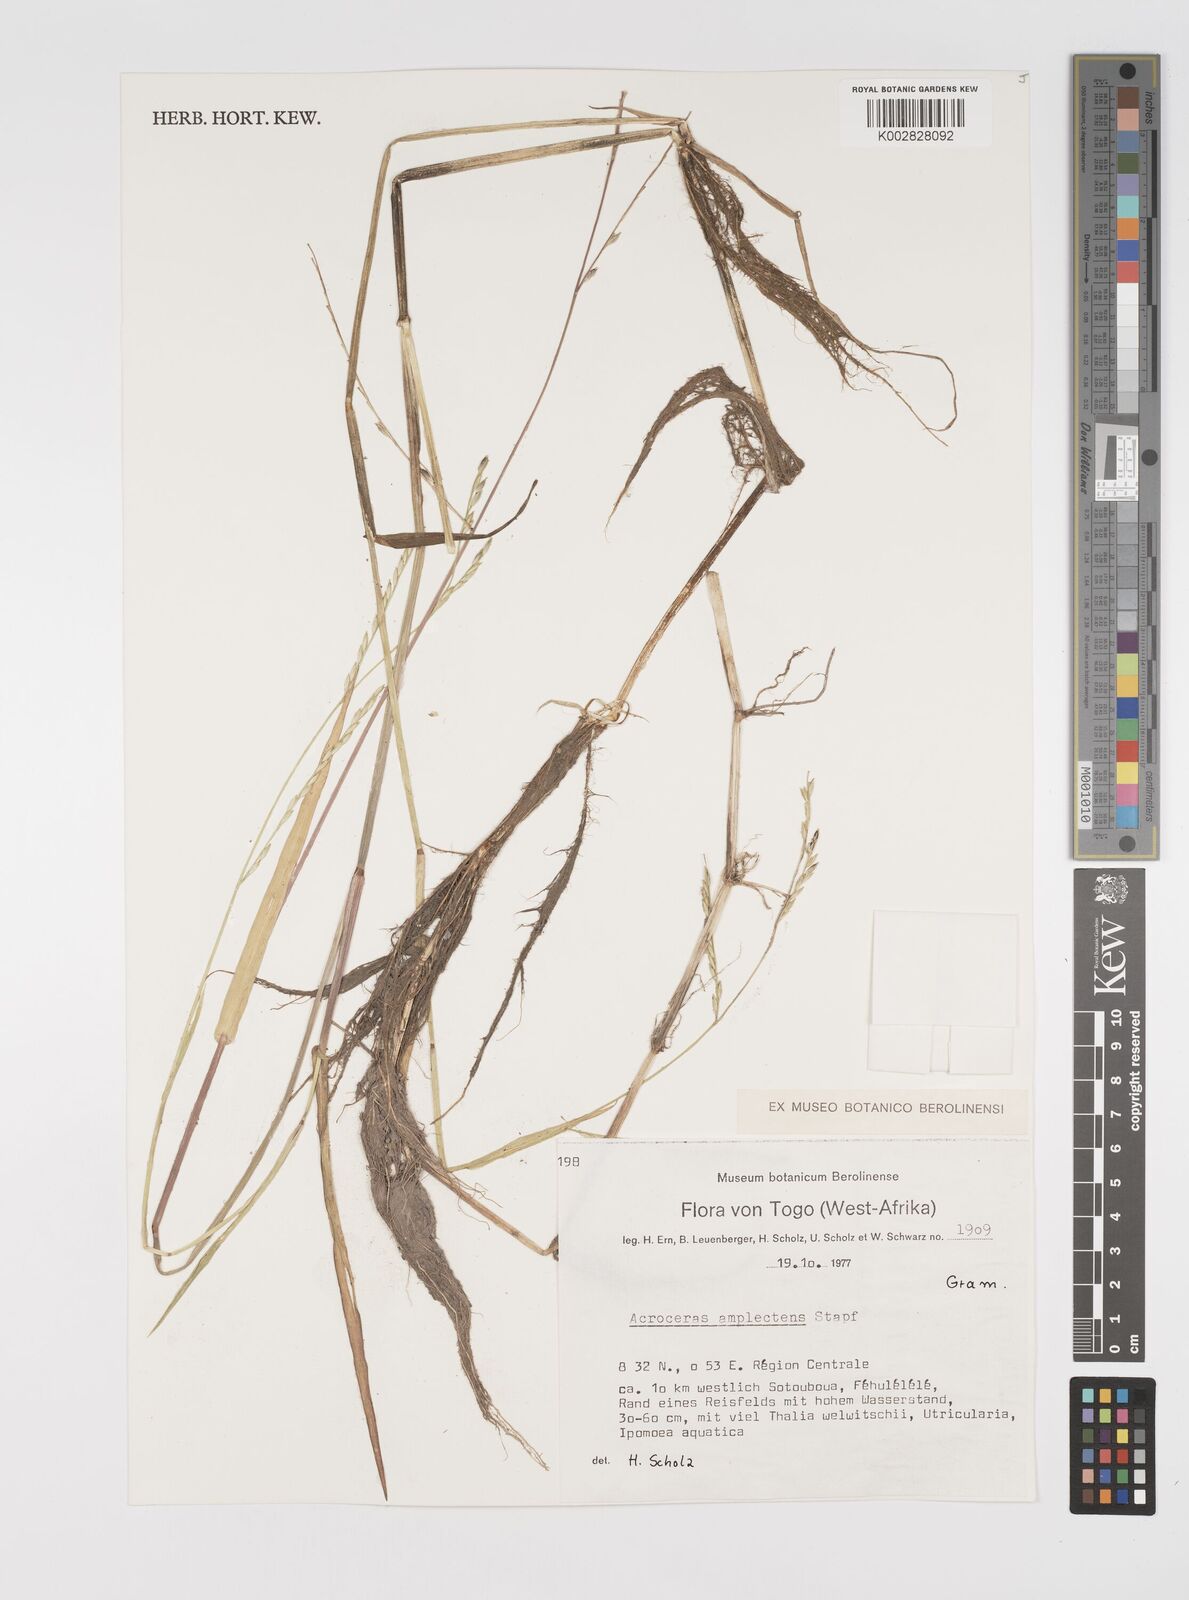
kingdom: Plantae
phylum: Tracheophyta
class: Liliopsida
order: Poales
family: Poaceae
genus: Acroceras
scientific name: Acroceras amplectens
